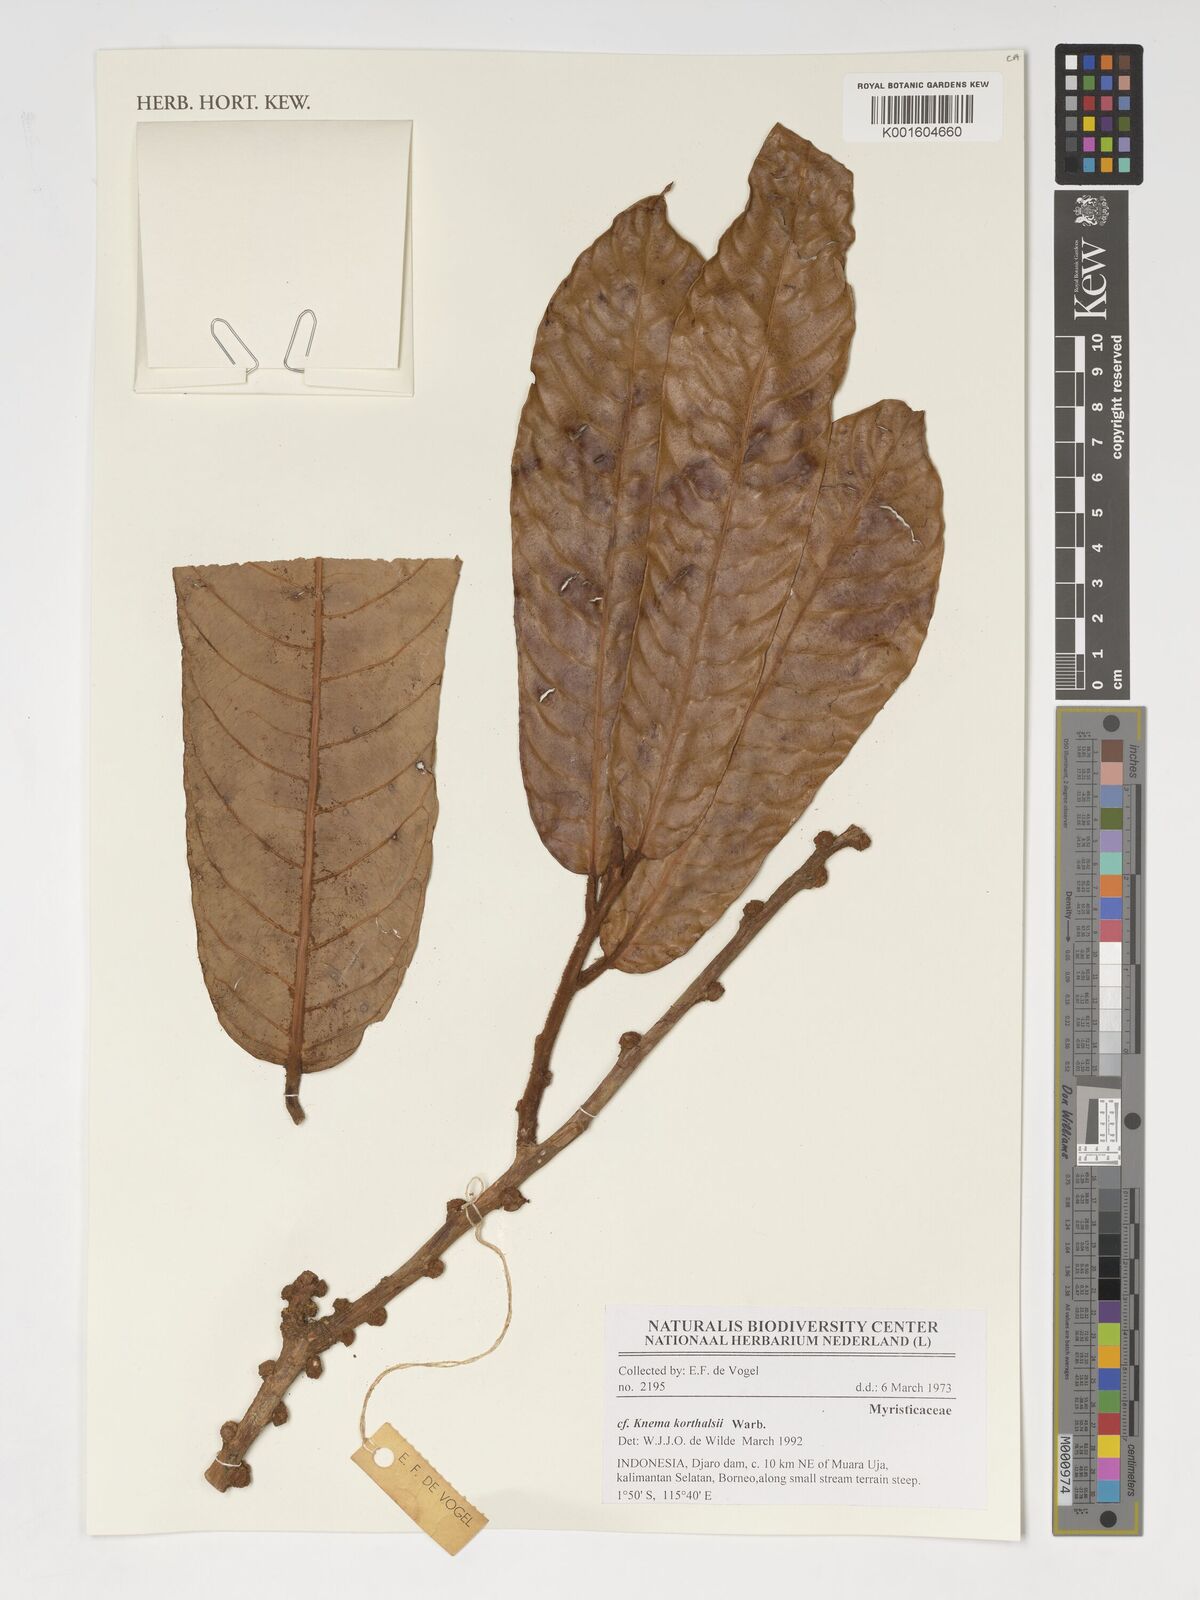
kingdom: Plantae
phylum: Tracheophyta
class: Magnoliopsida
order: Magnoliales
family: Myristicaceae
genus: Knema
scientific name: Knema korthalsii
